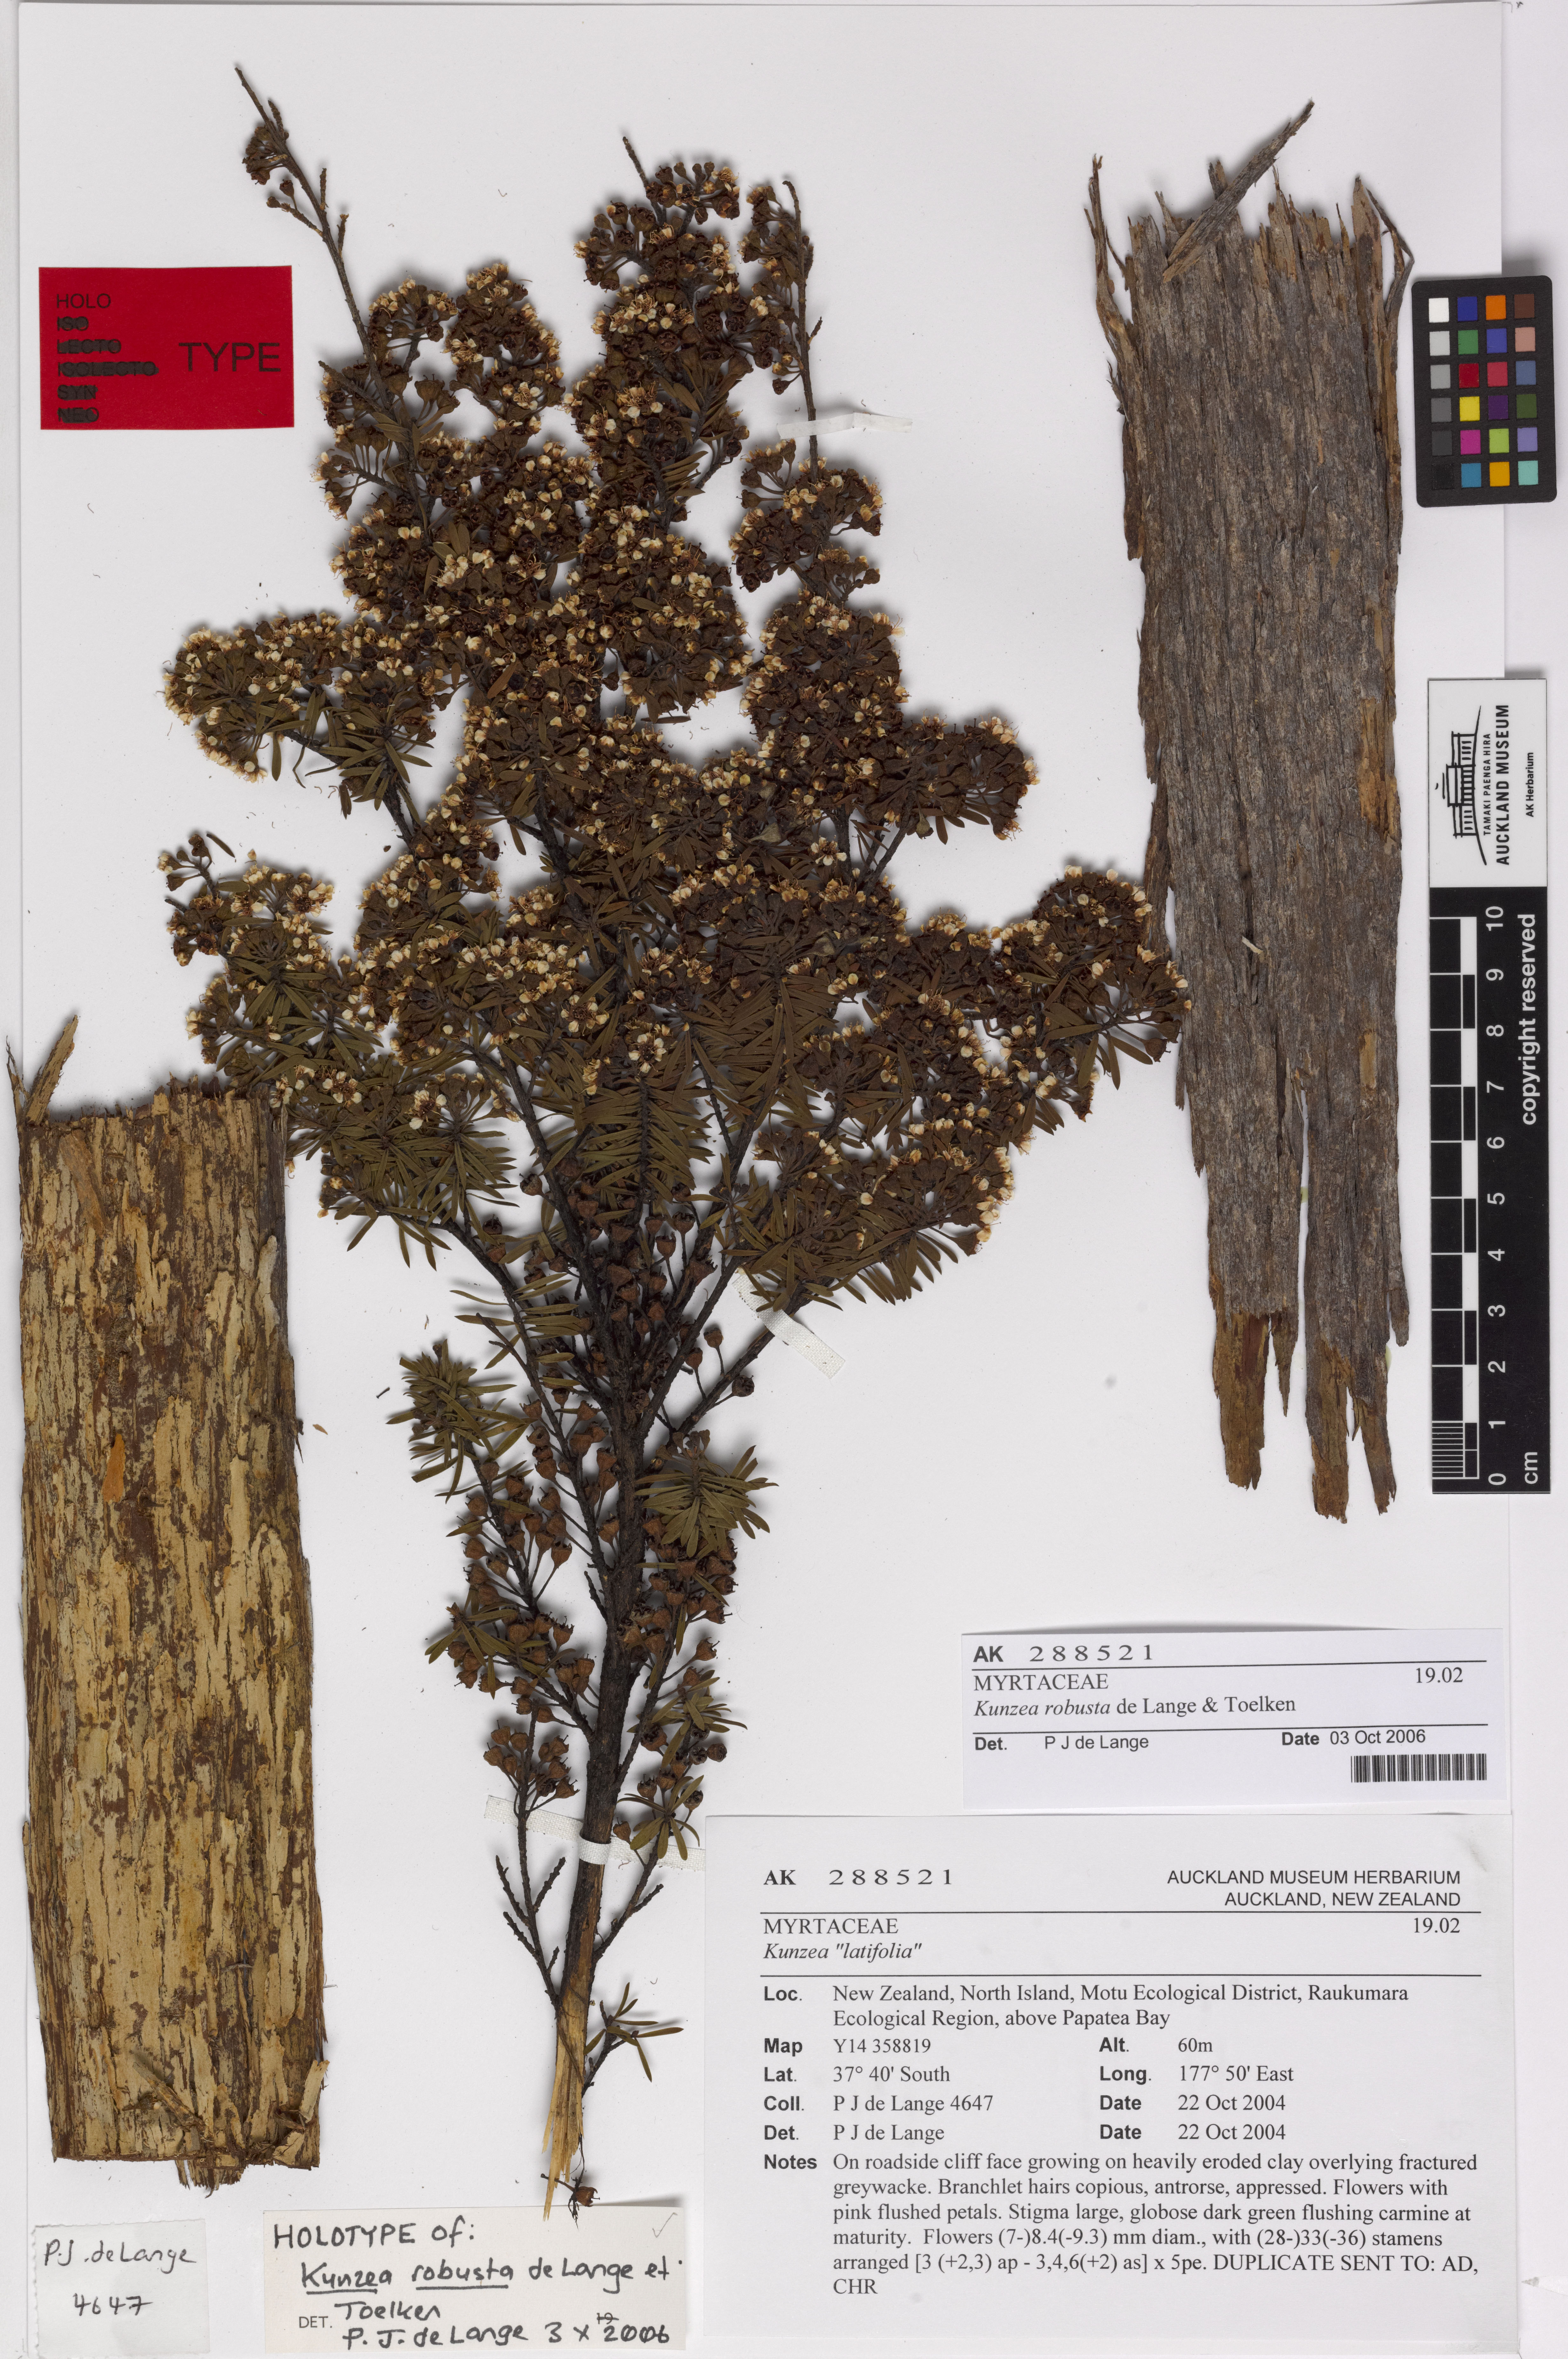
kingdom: Plantae
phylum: Tracheophyta
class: Magnoliopsida
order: Myrtales
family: Myrtaceae
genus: Kunzea
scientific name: Kunzea robusta
